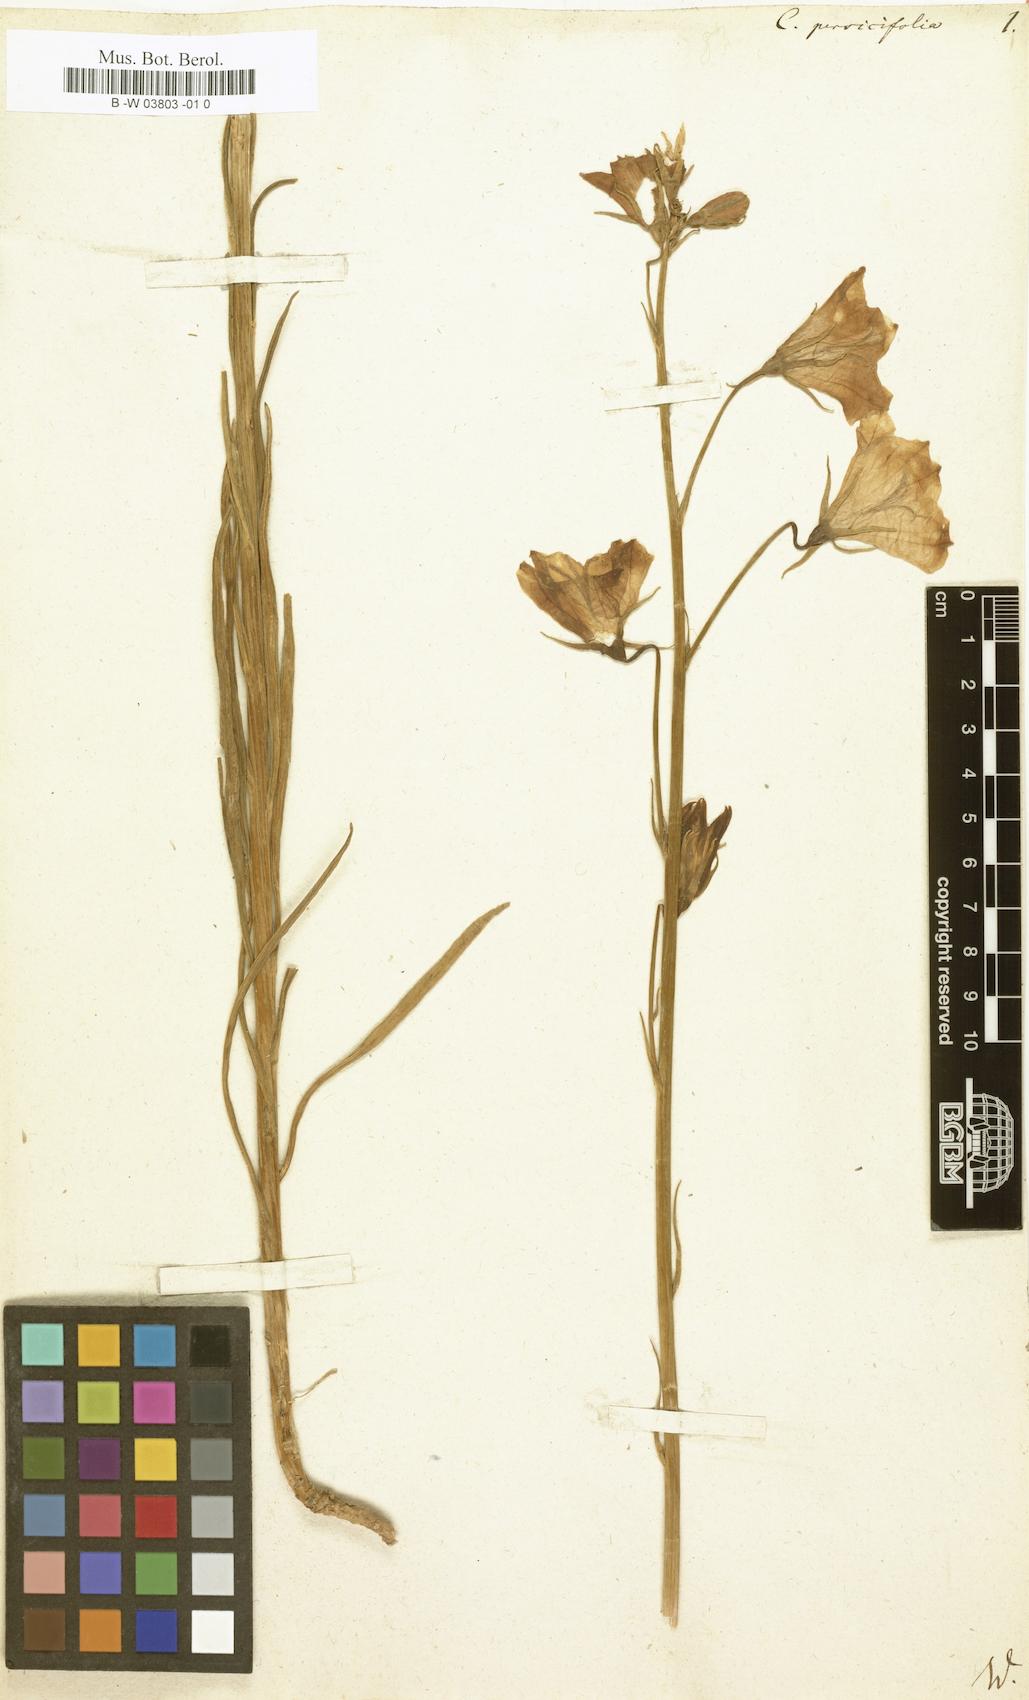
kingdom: Plantae
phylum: Tracheophyta
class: Magnoliopsida
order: Asterales
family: Campanulaceae
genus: Campanula
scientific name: Campanula persicifolia
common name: Peach-leaved bellflower
